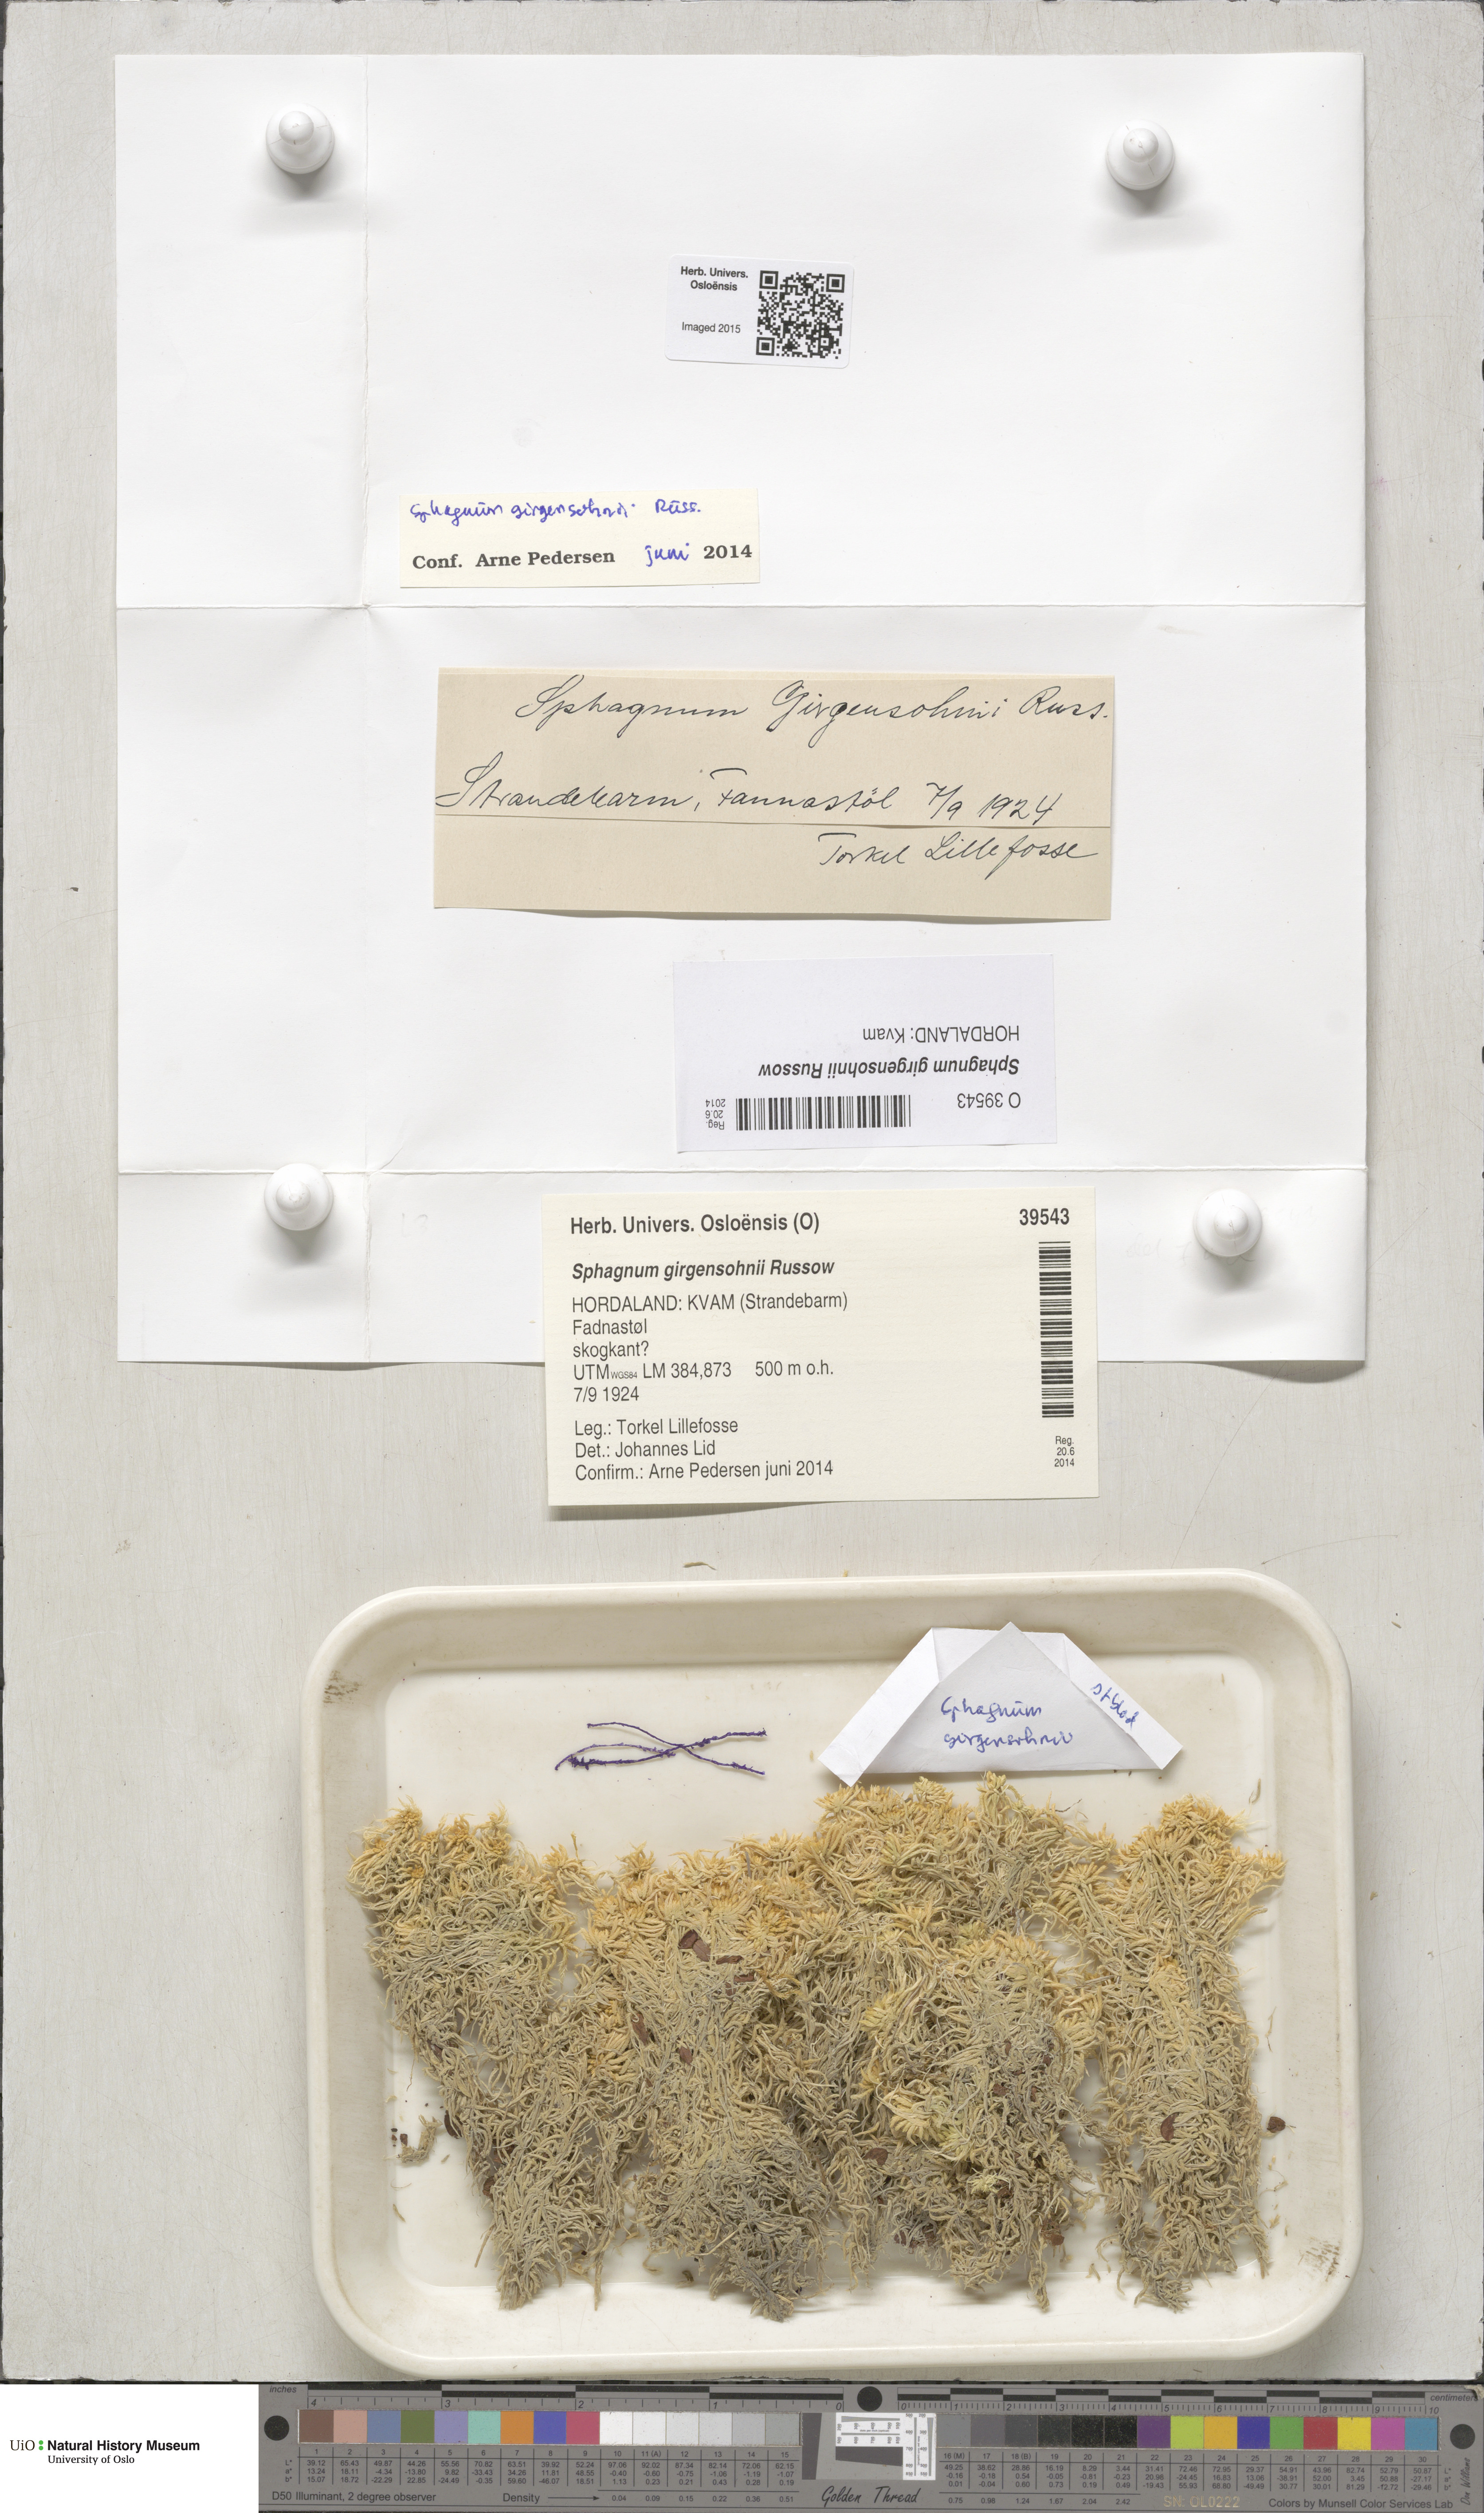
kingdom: Plantae
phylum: Bryophyta
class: Sphagnopsida
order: Sphagnales
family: Sphagnaceae
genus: Sphagnum
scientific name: Sphagnum girgensohnii
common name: Girgensohn's peat moss
